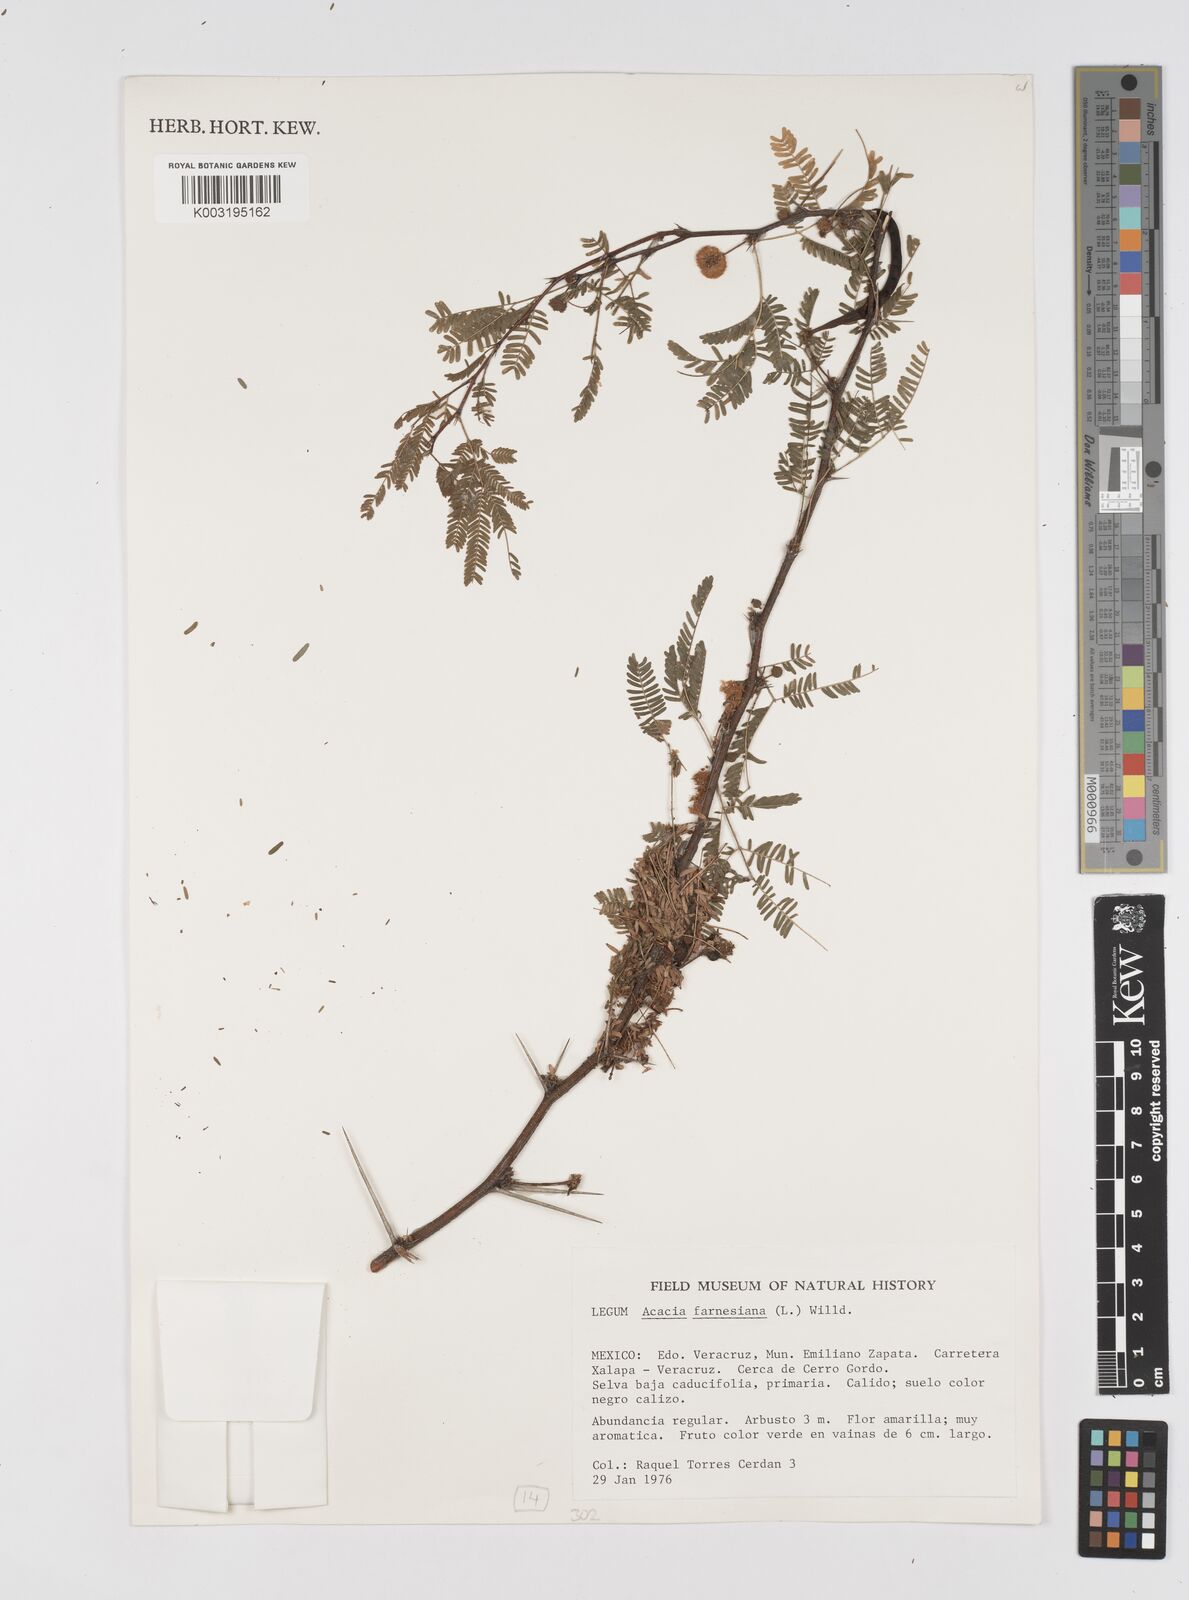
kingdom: Plantae
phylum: Tracheophyta
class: Magnoliopsida
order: Fabales
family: Fabaceae
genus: Vachellia
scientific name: Vachellia farnesiana
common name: Sweet acacia
